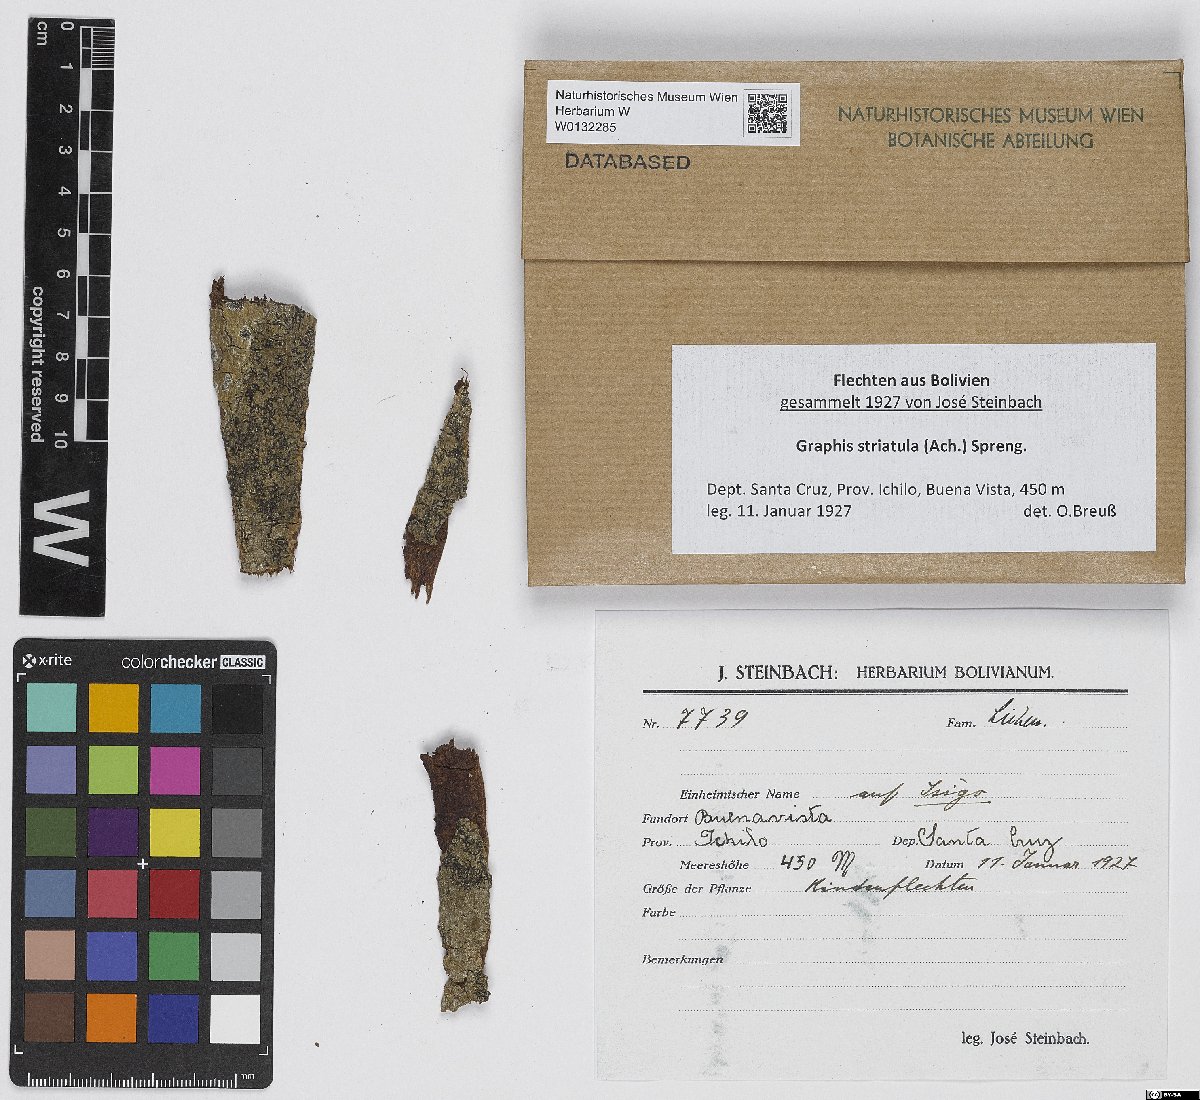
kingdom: Fungi
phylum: Ascomycota
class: Lecanoromycetes
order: Ostropales
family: Graphidaceae
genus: Allographa
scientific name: Allographa striatula
